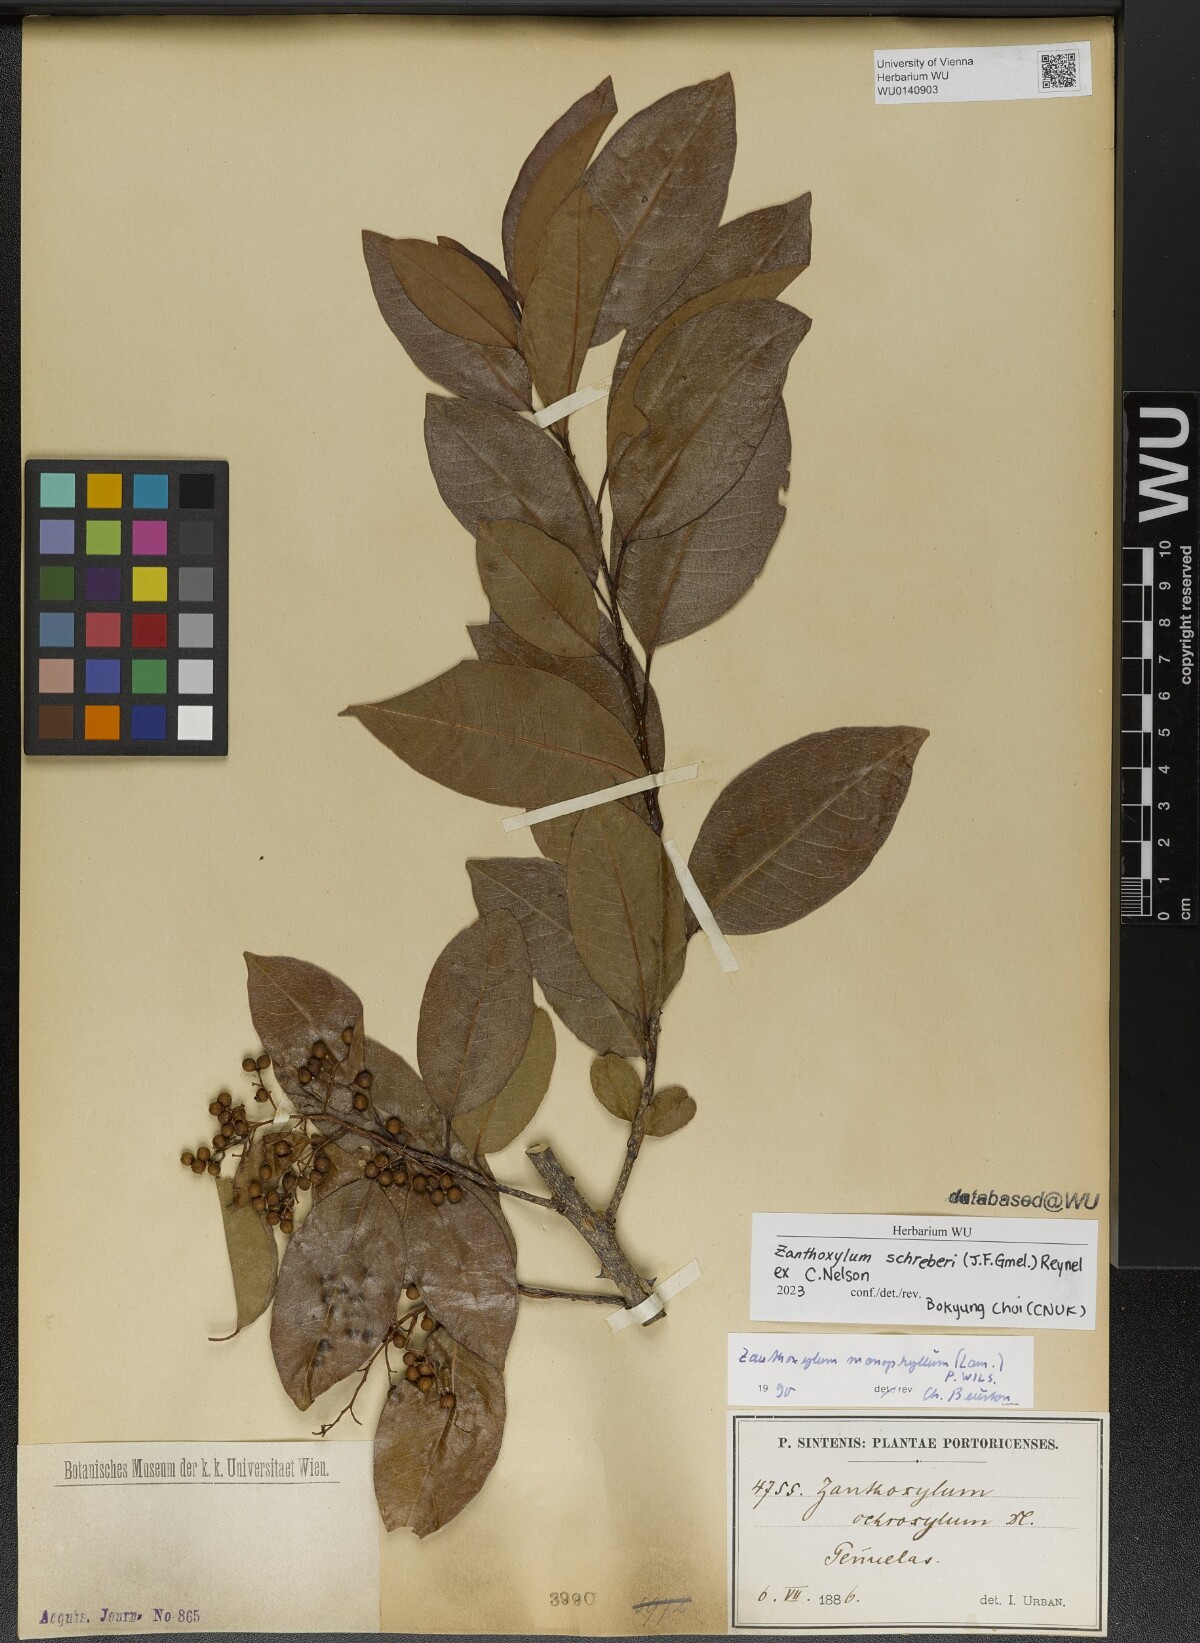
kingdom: Plantae
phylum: Tracheophyta
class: Magnoliopsida
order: Sapindales
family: Rutaceae
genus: Zanthoxylum
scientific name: Zanthoxylum schreberi
